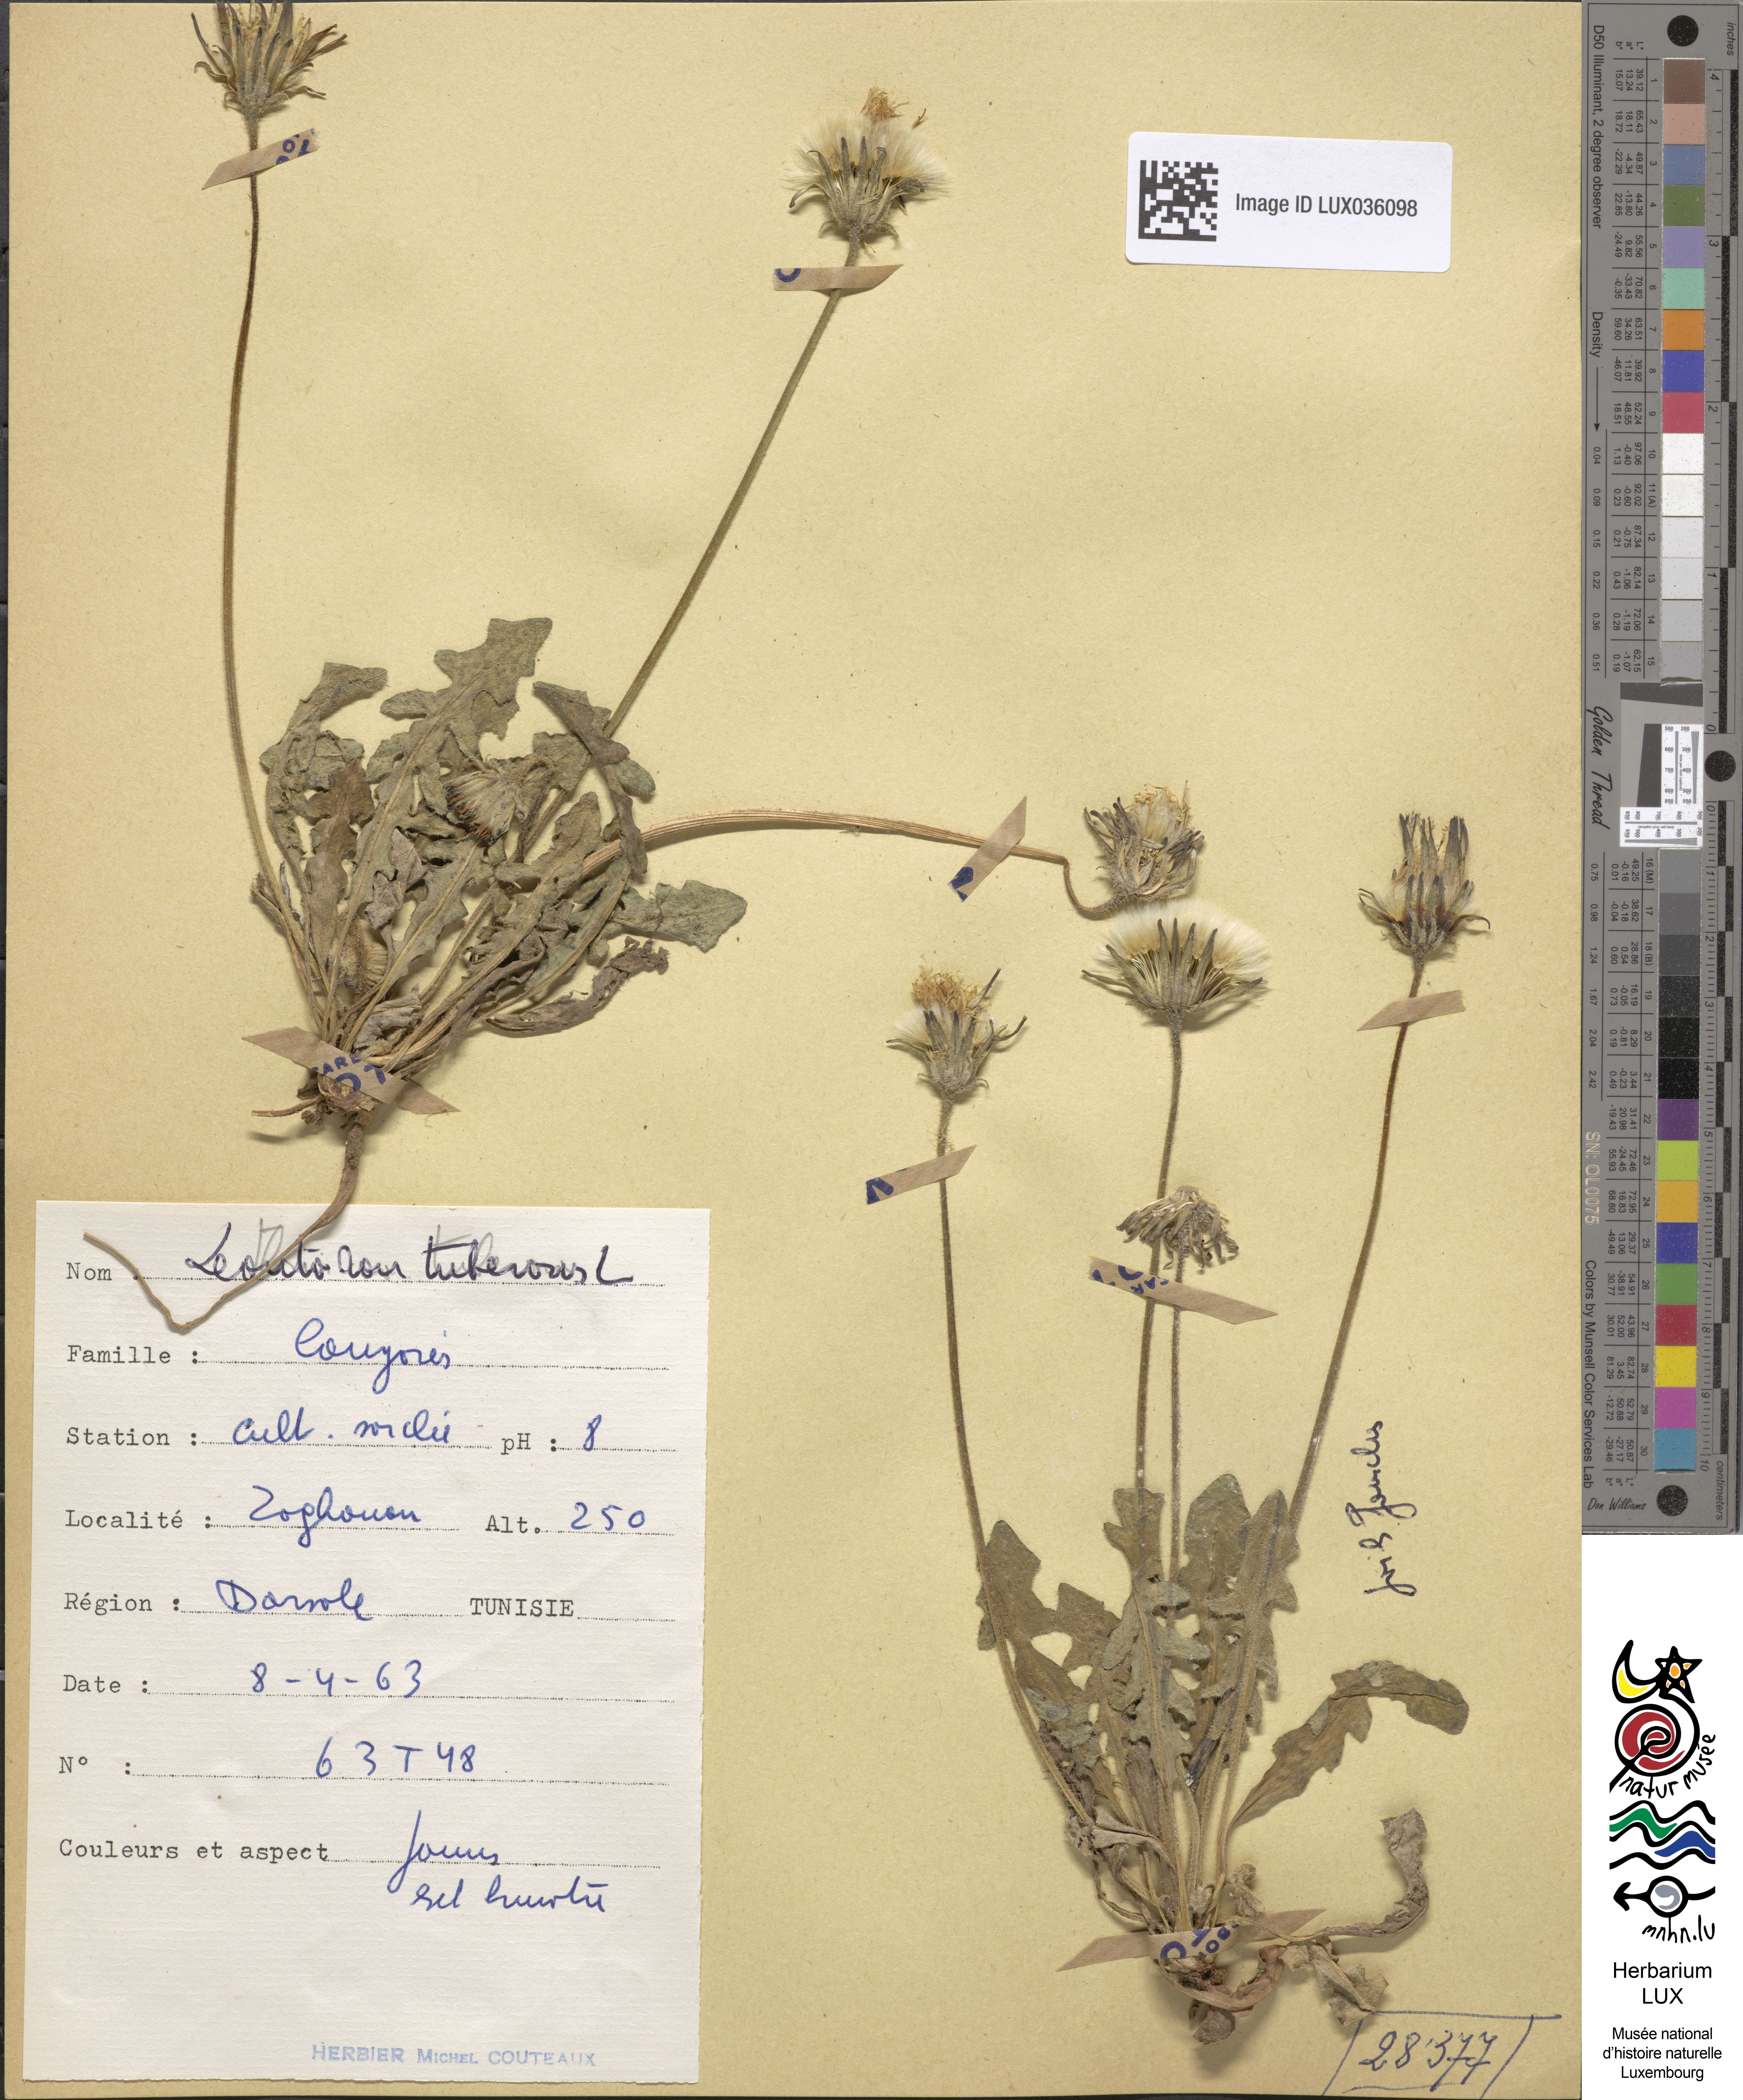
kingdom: Plantae
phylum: Tracheophyta
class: Magnoliopsida
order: Asterales
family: Asteraceae
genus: Thrincia
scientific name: Thrincia tuberosa
